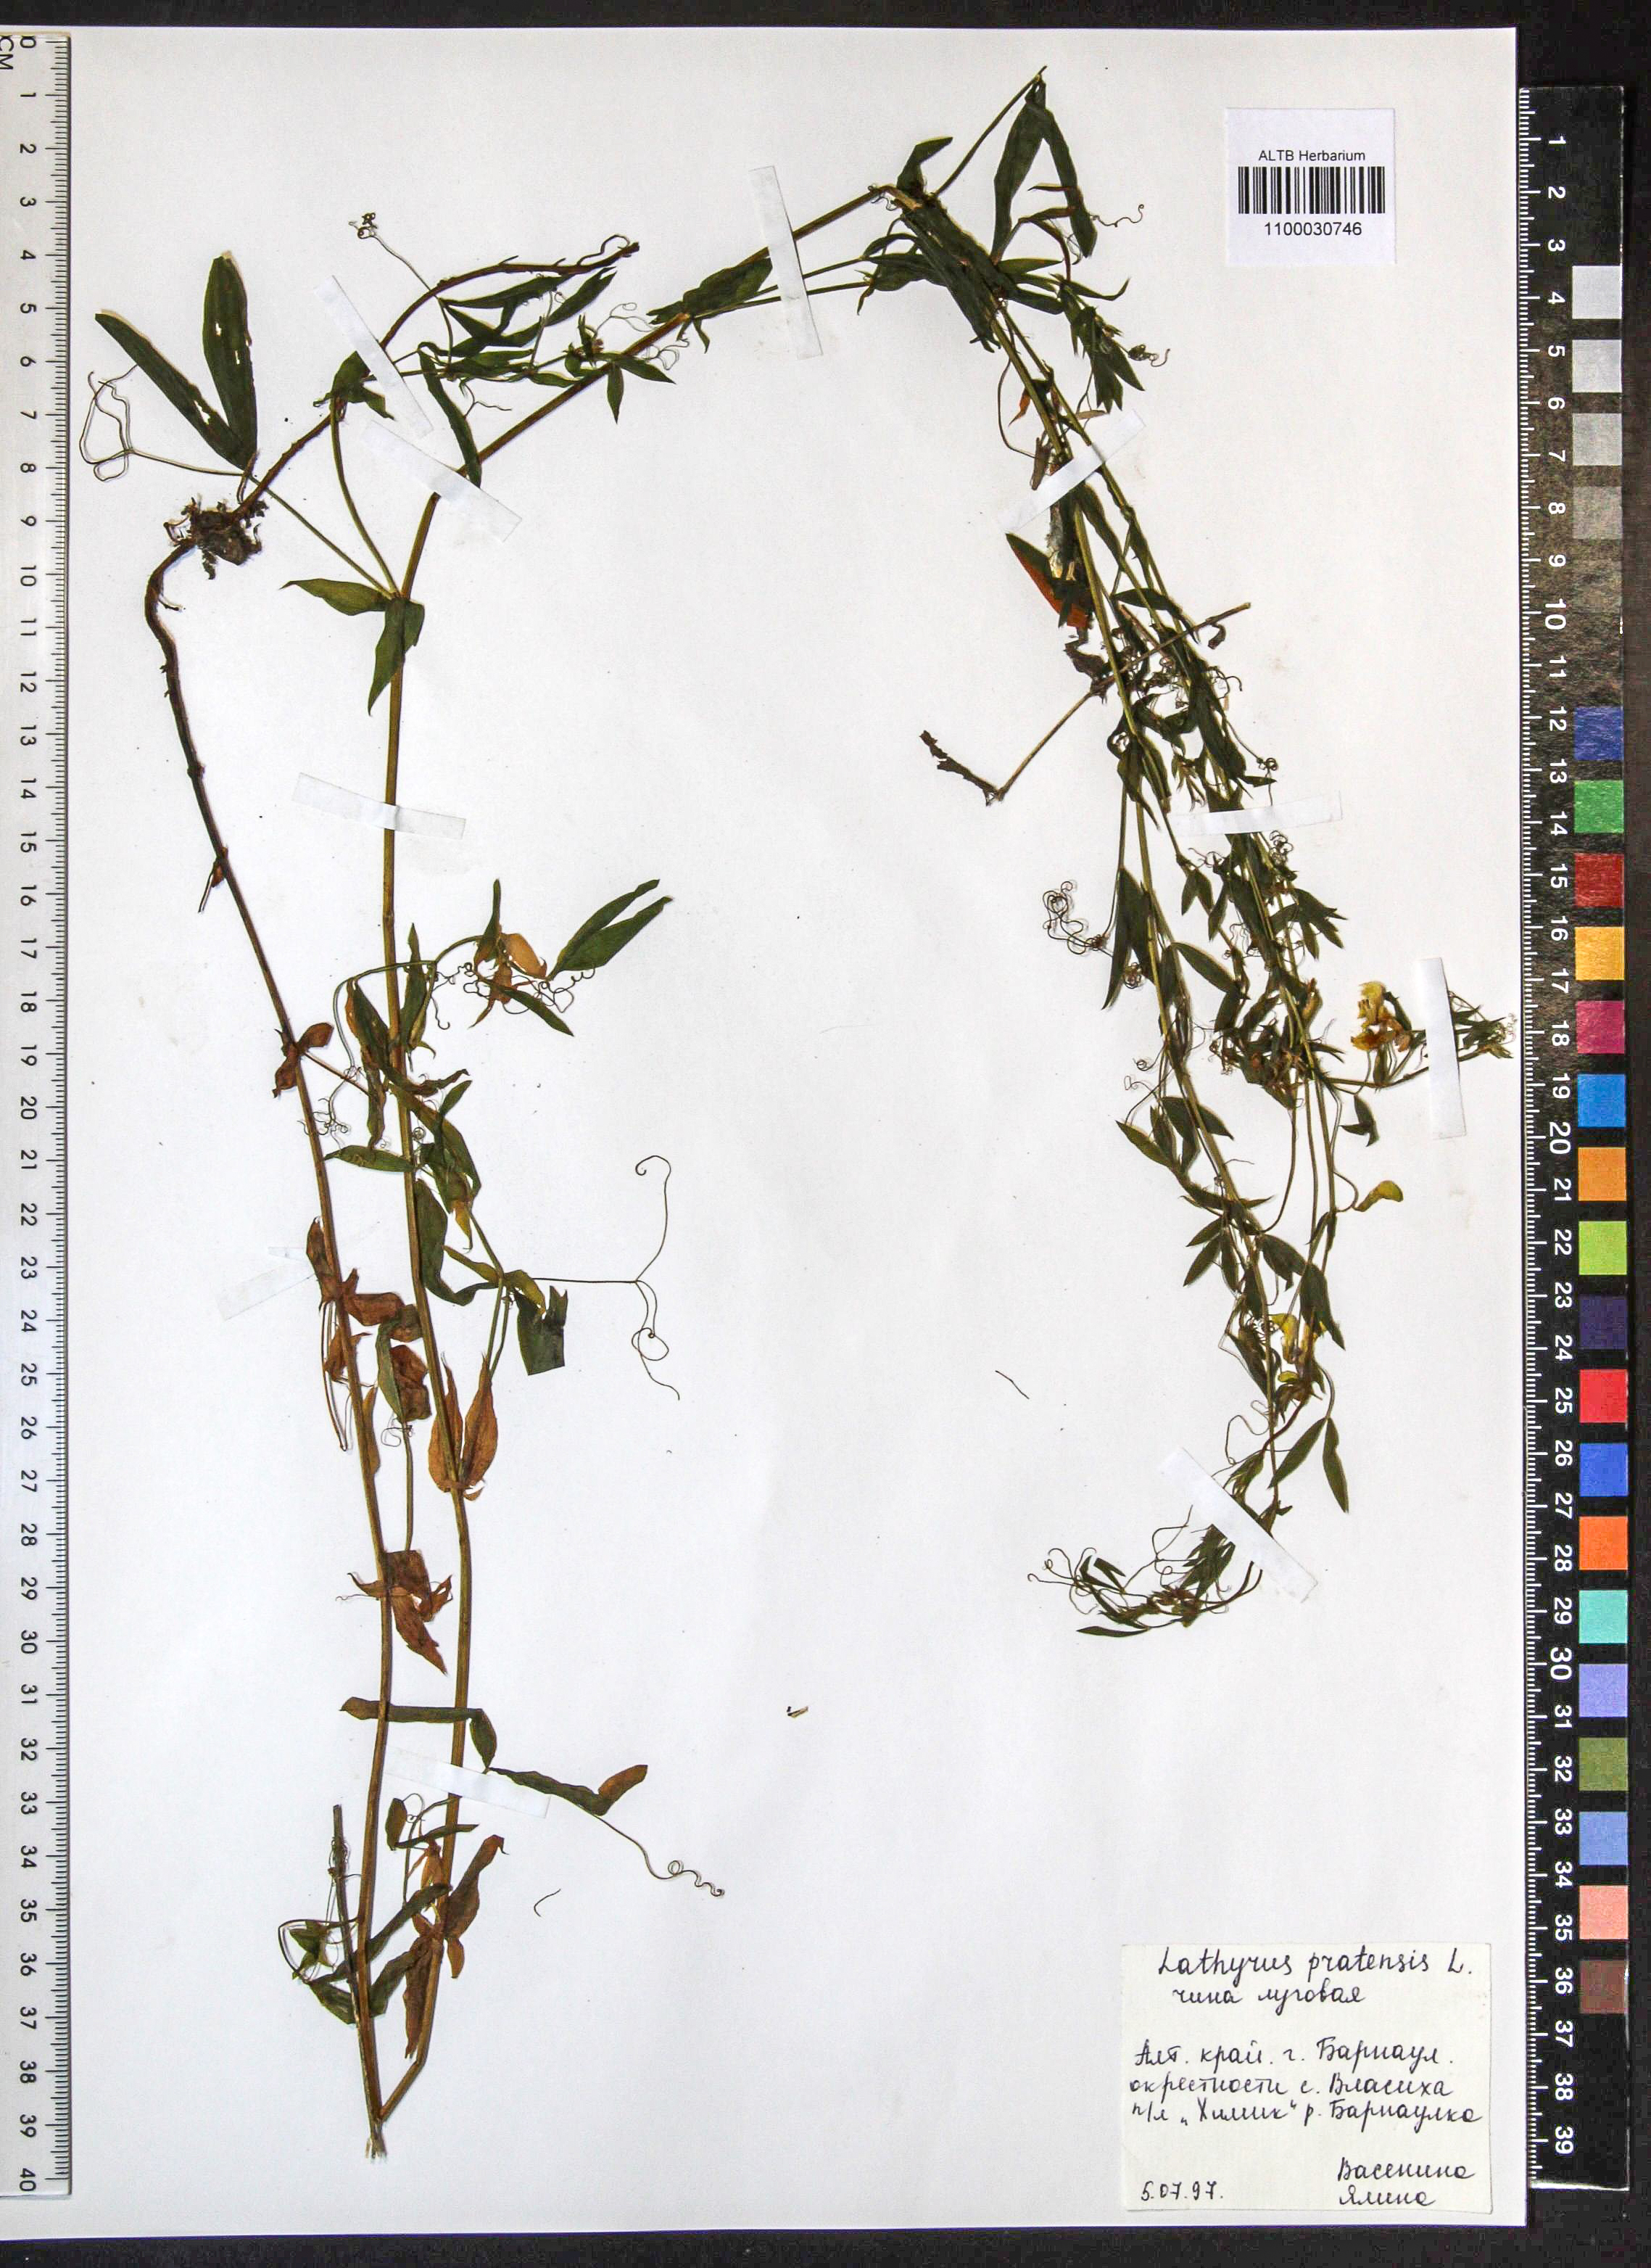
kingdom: Plantae
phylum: Tracheophyta
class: Magnoliopsida
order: Fabales
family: Fabaceae
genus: Lathyrus
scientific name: Lathyrus pratensis
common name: Meadow vetchling
